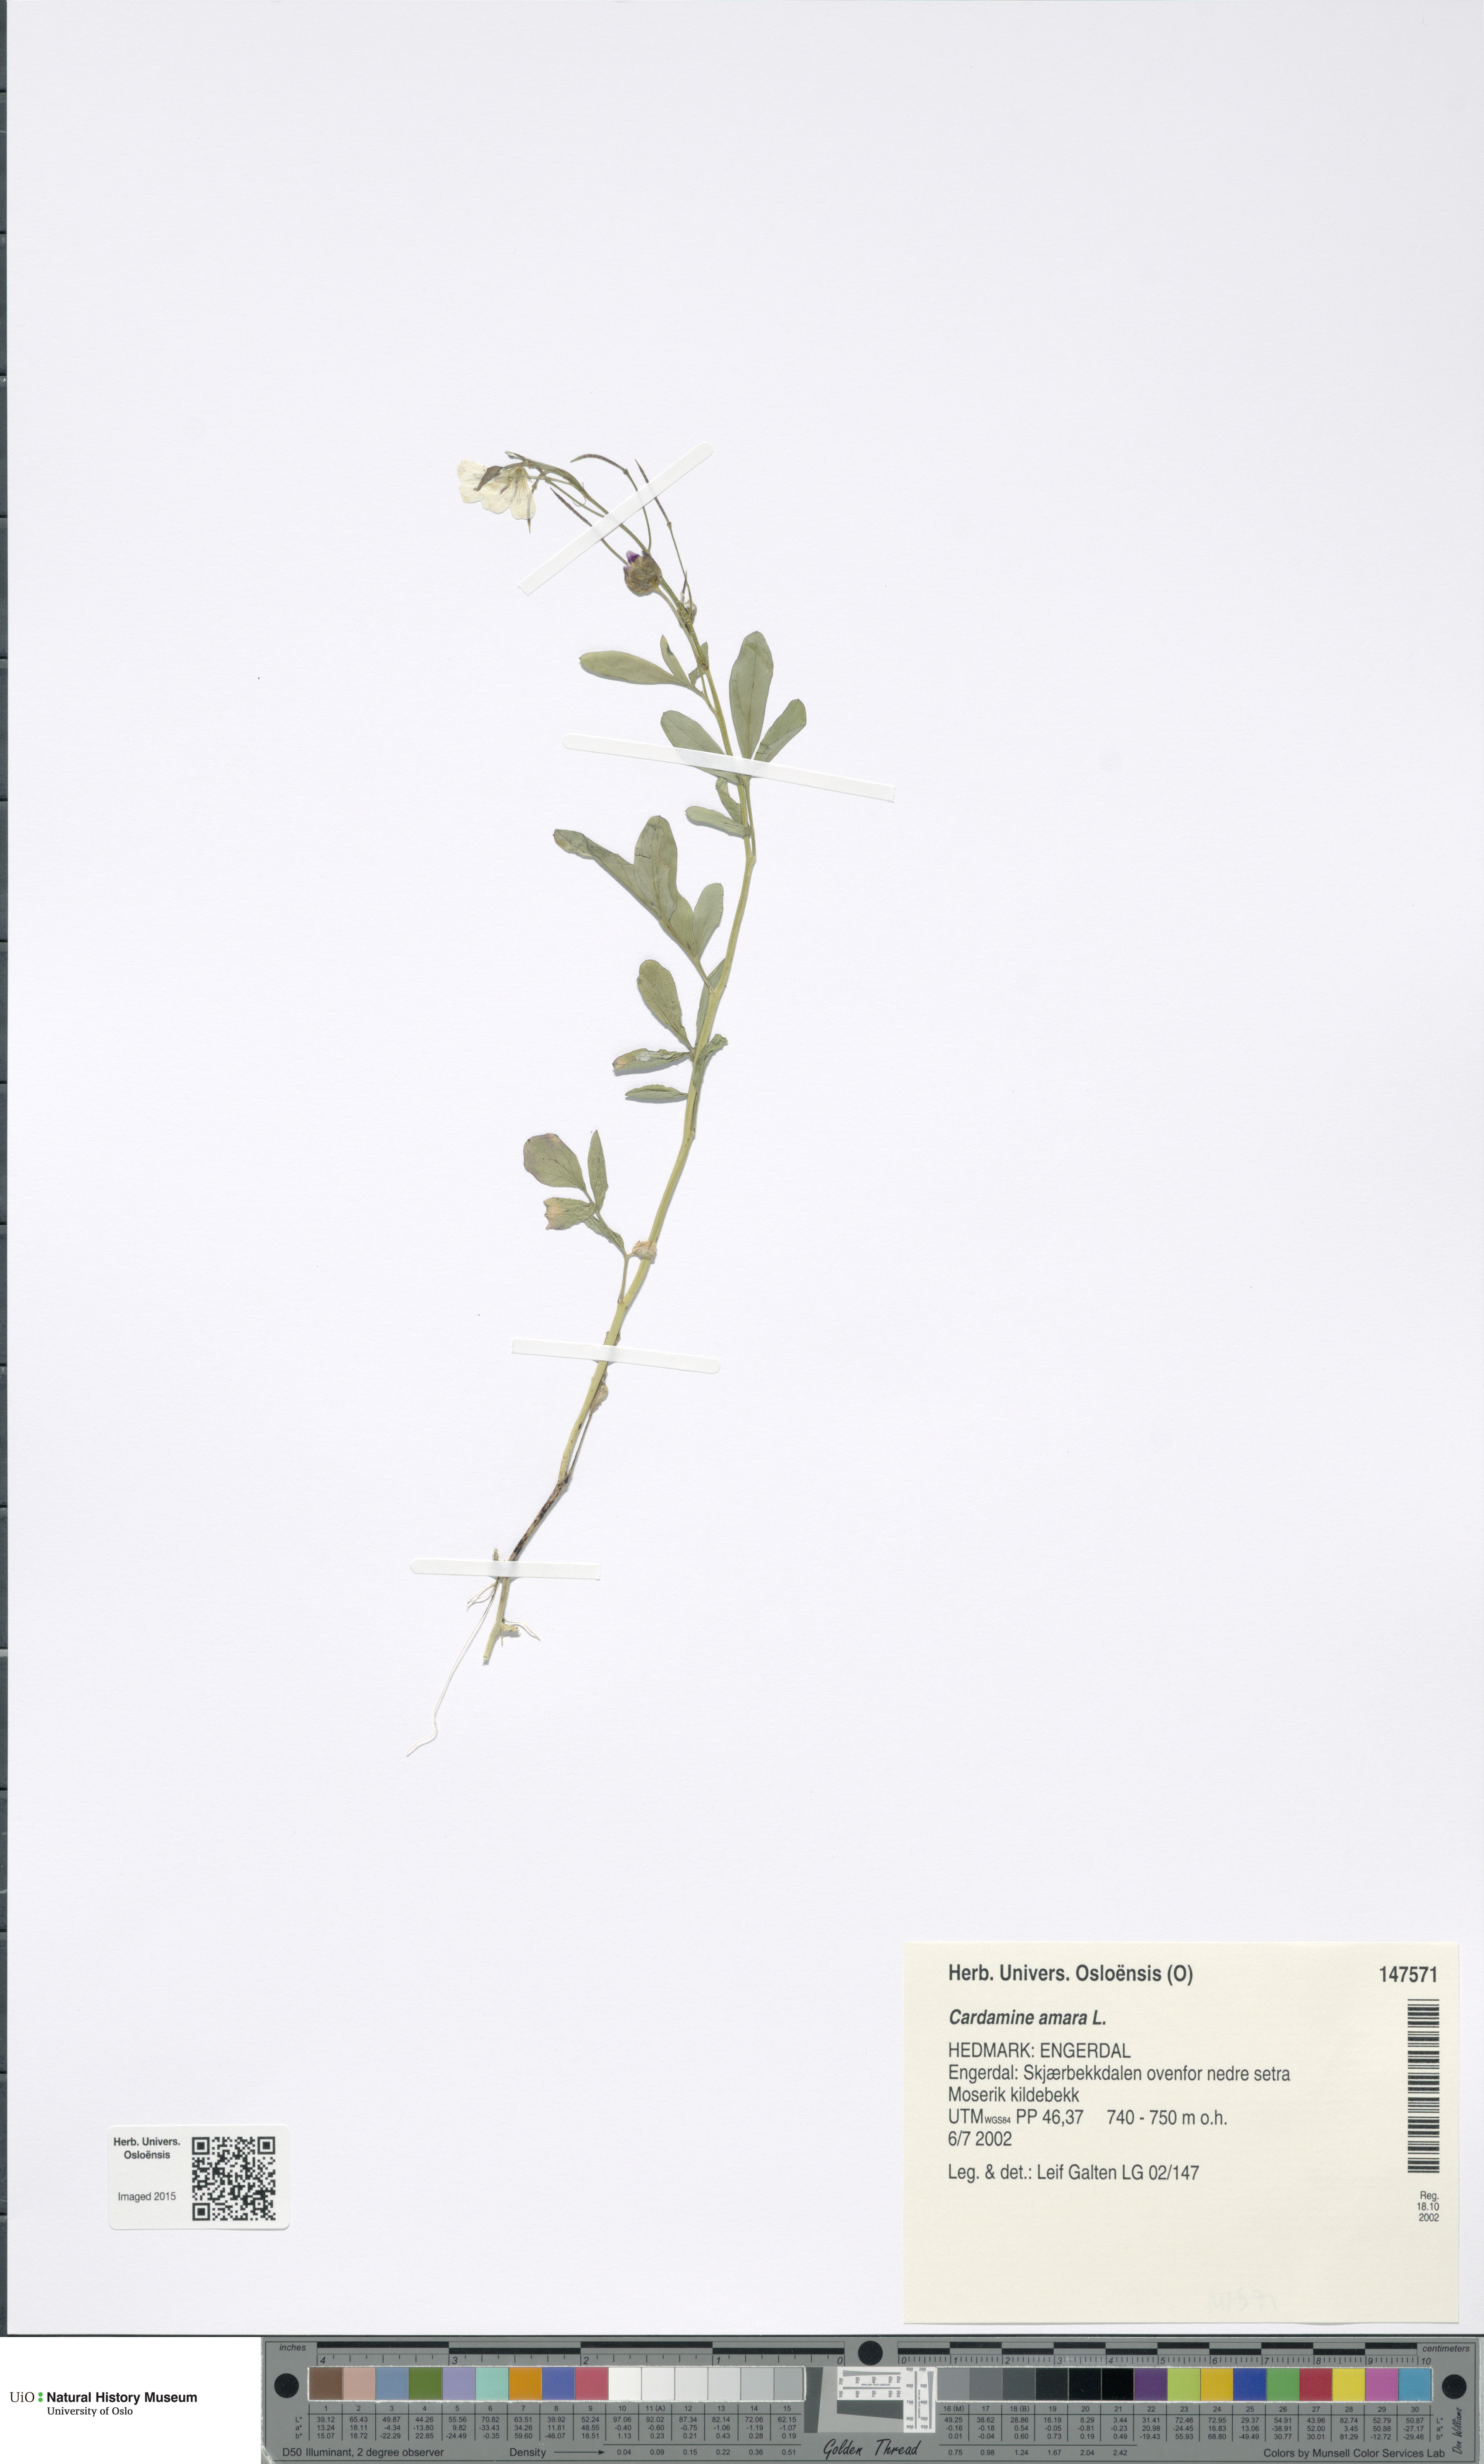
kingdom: Plantae
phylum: Tracheophyta
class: Magnoliopsida
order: Brassicales
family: Brassicaceae
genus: Cardamine
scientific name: Cardamine amara
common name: Large bitter-cress
